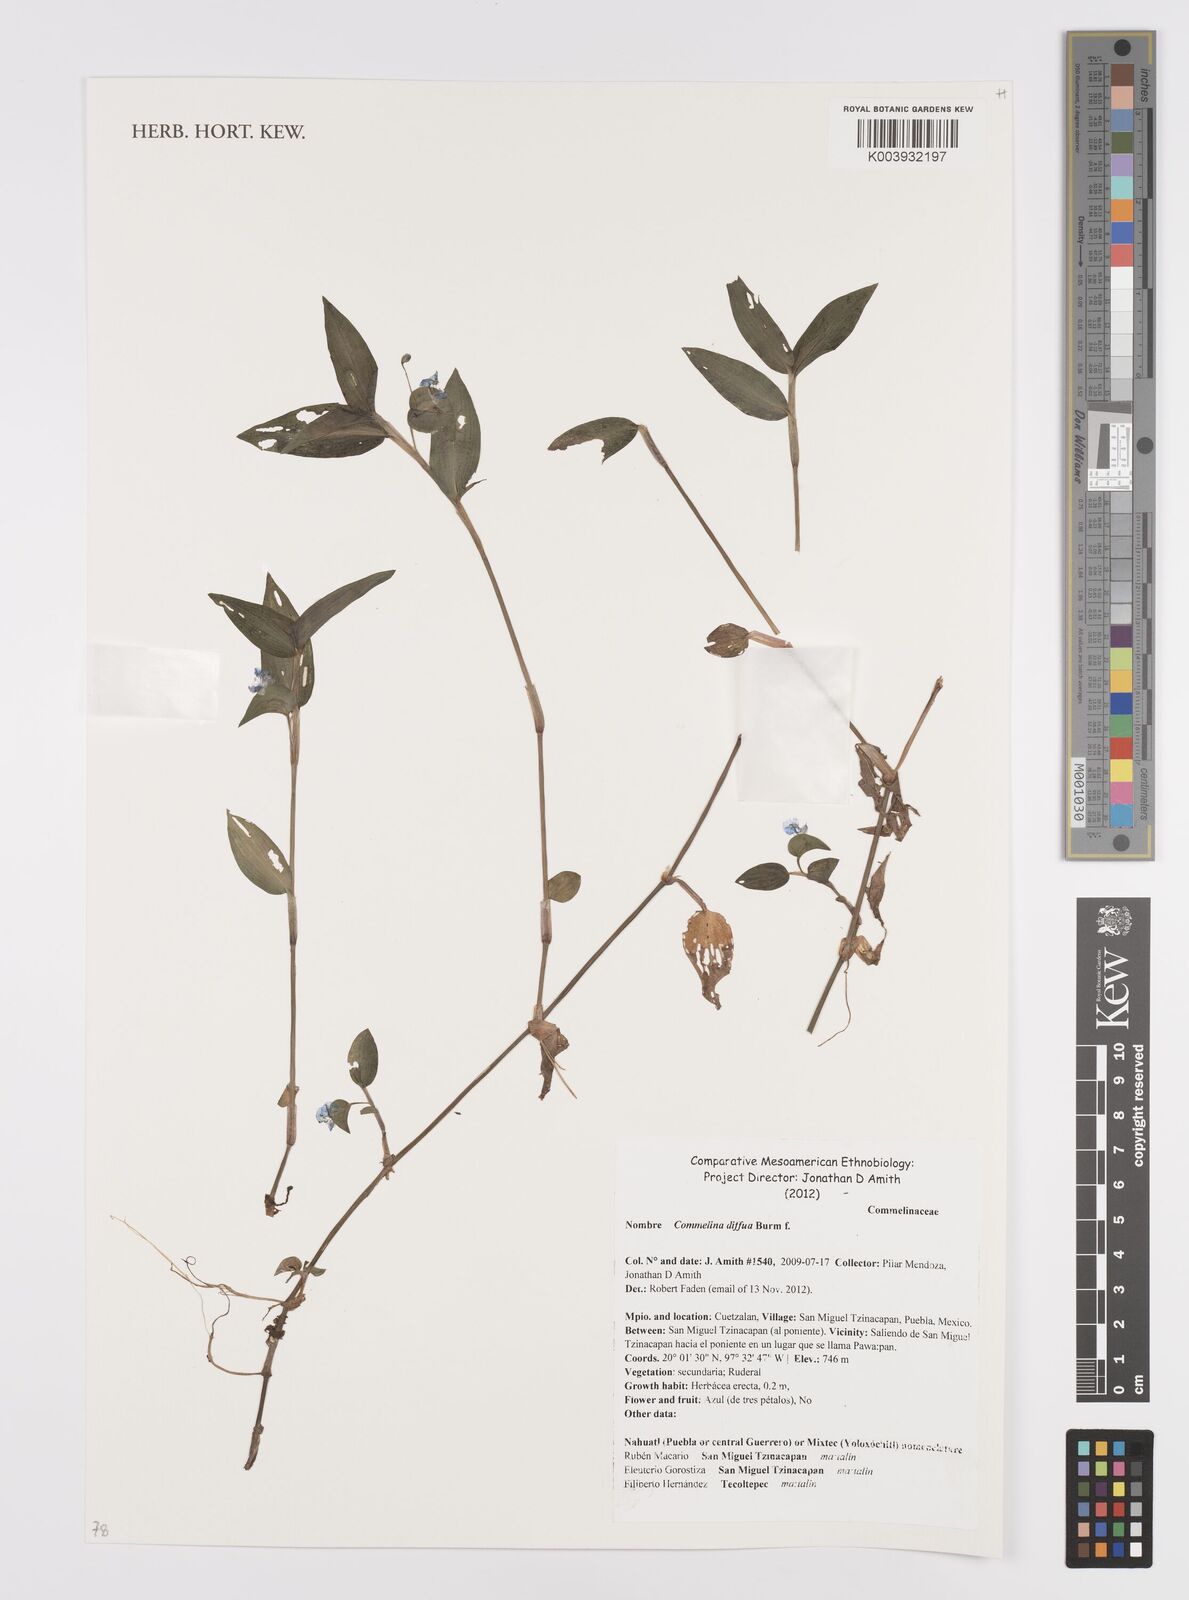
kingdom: Plantae
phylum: Tracheophyta
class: Liliopsida
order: Commelinales
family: Commelinaceae
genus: Commelina
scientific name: Commelina diffusa
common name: Climbing dayflower
